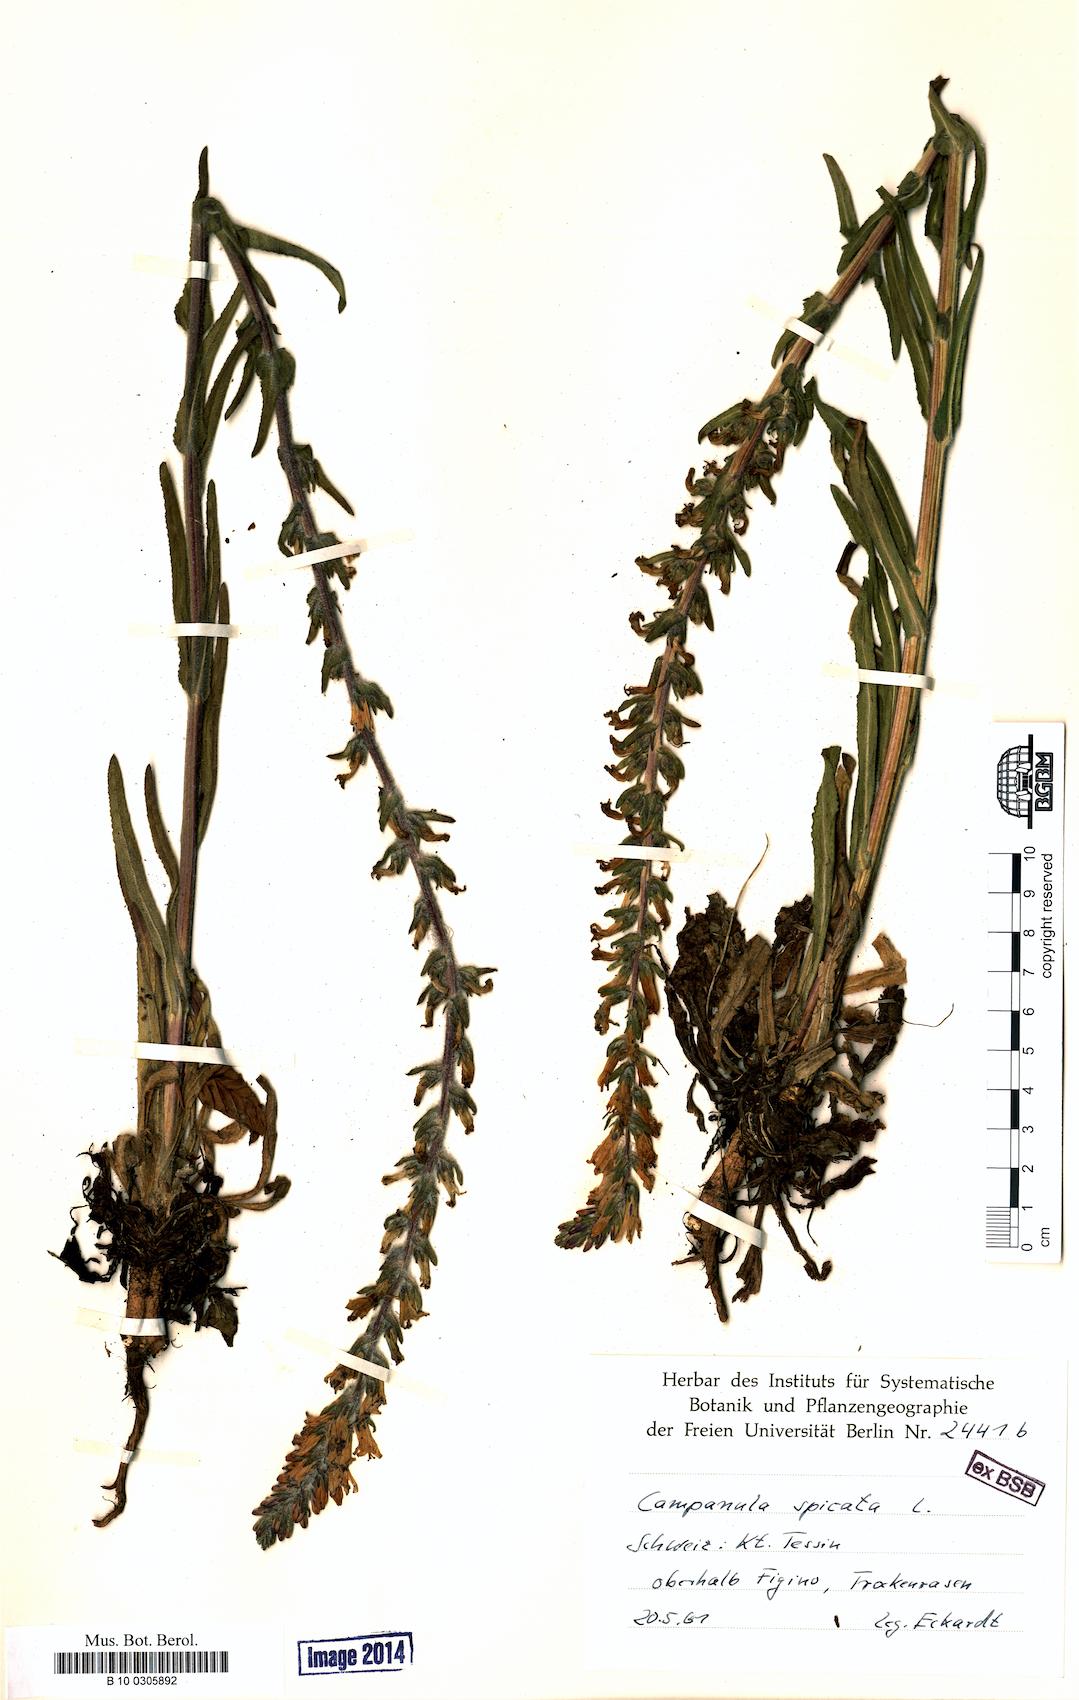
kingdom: Plantae
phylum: Tracheophyta
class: Magnoliopsida
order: Asterales
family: Campanulaceae
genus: Campanula
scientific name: Campanula spicata
